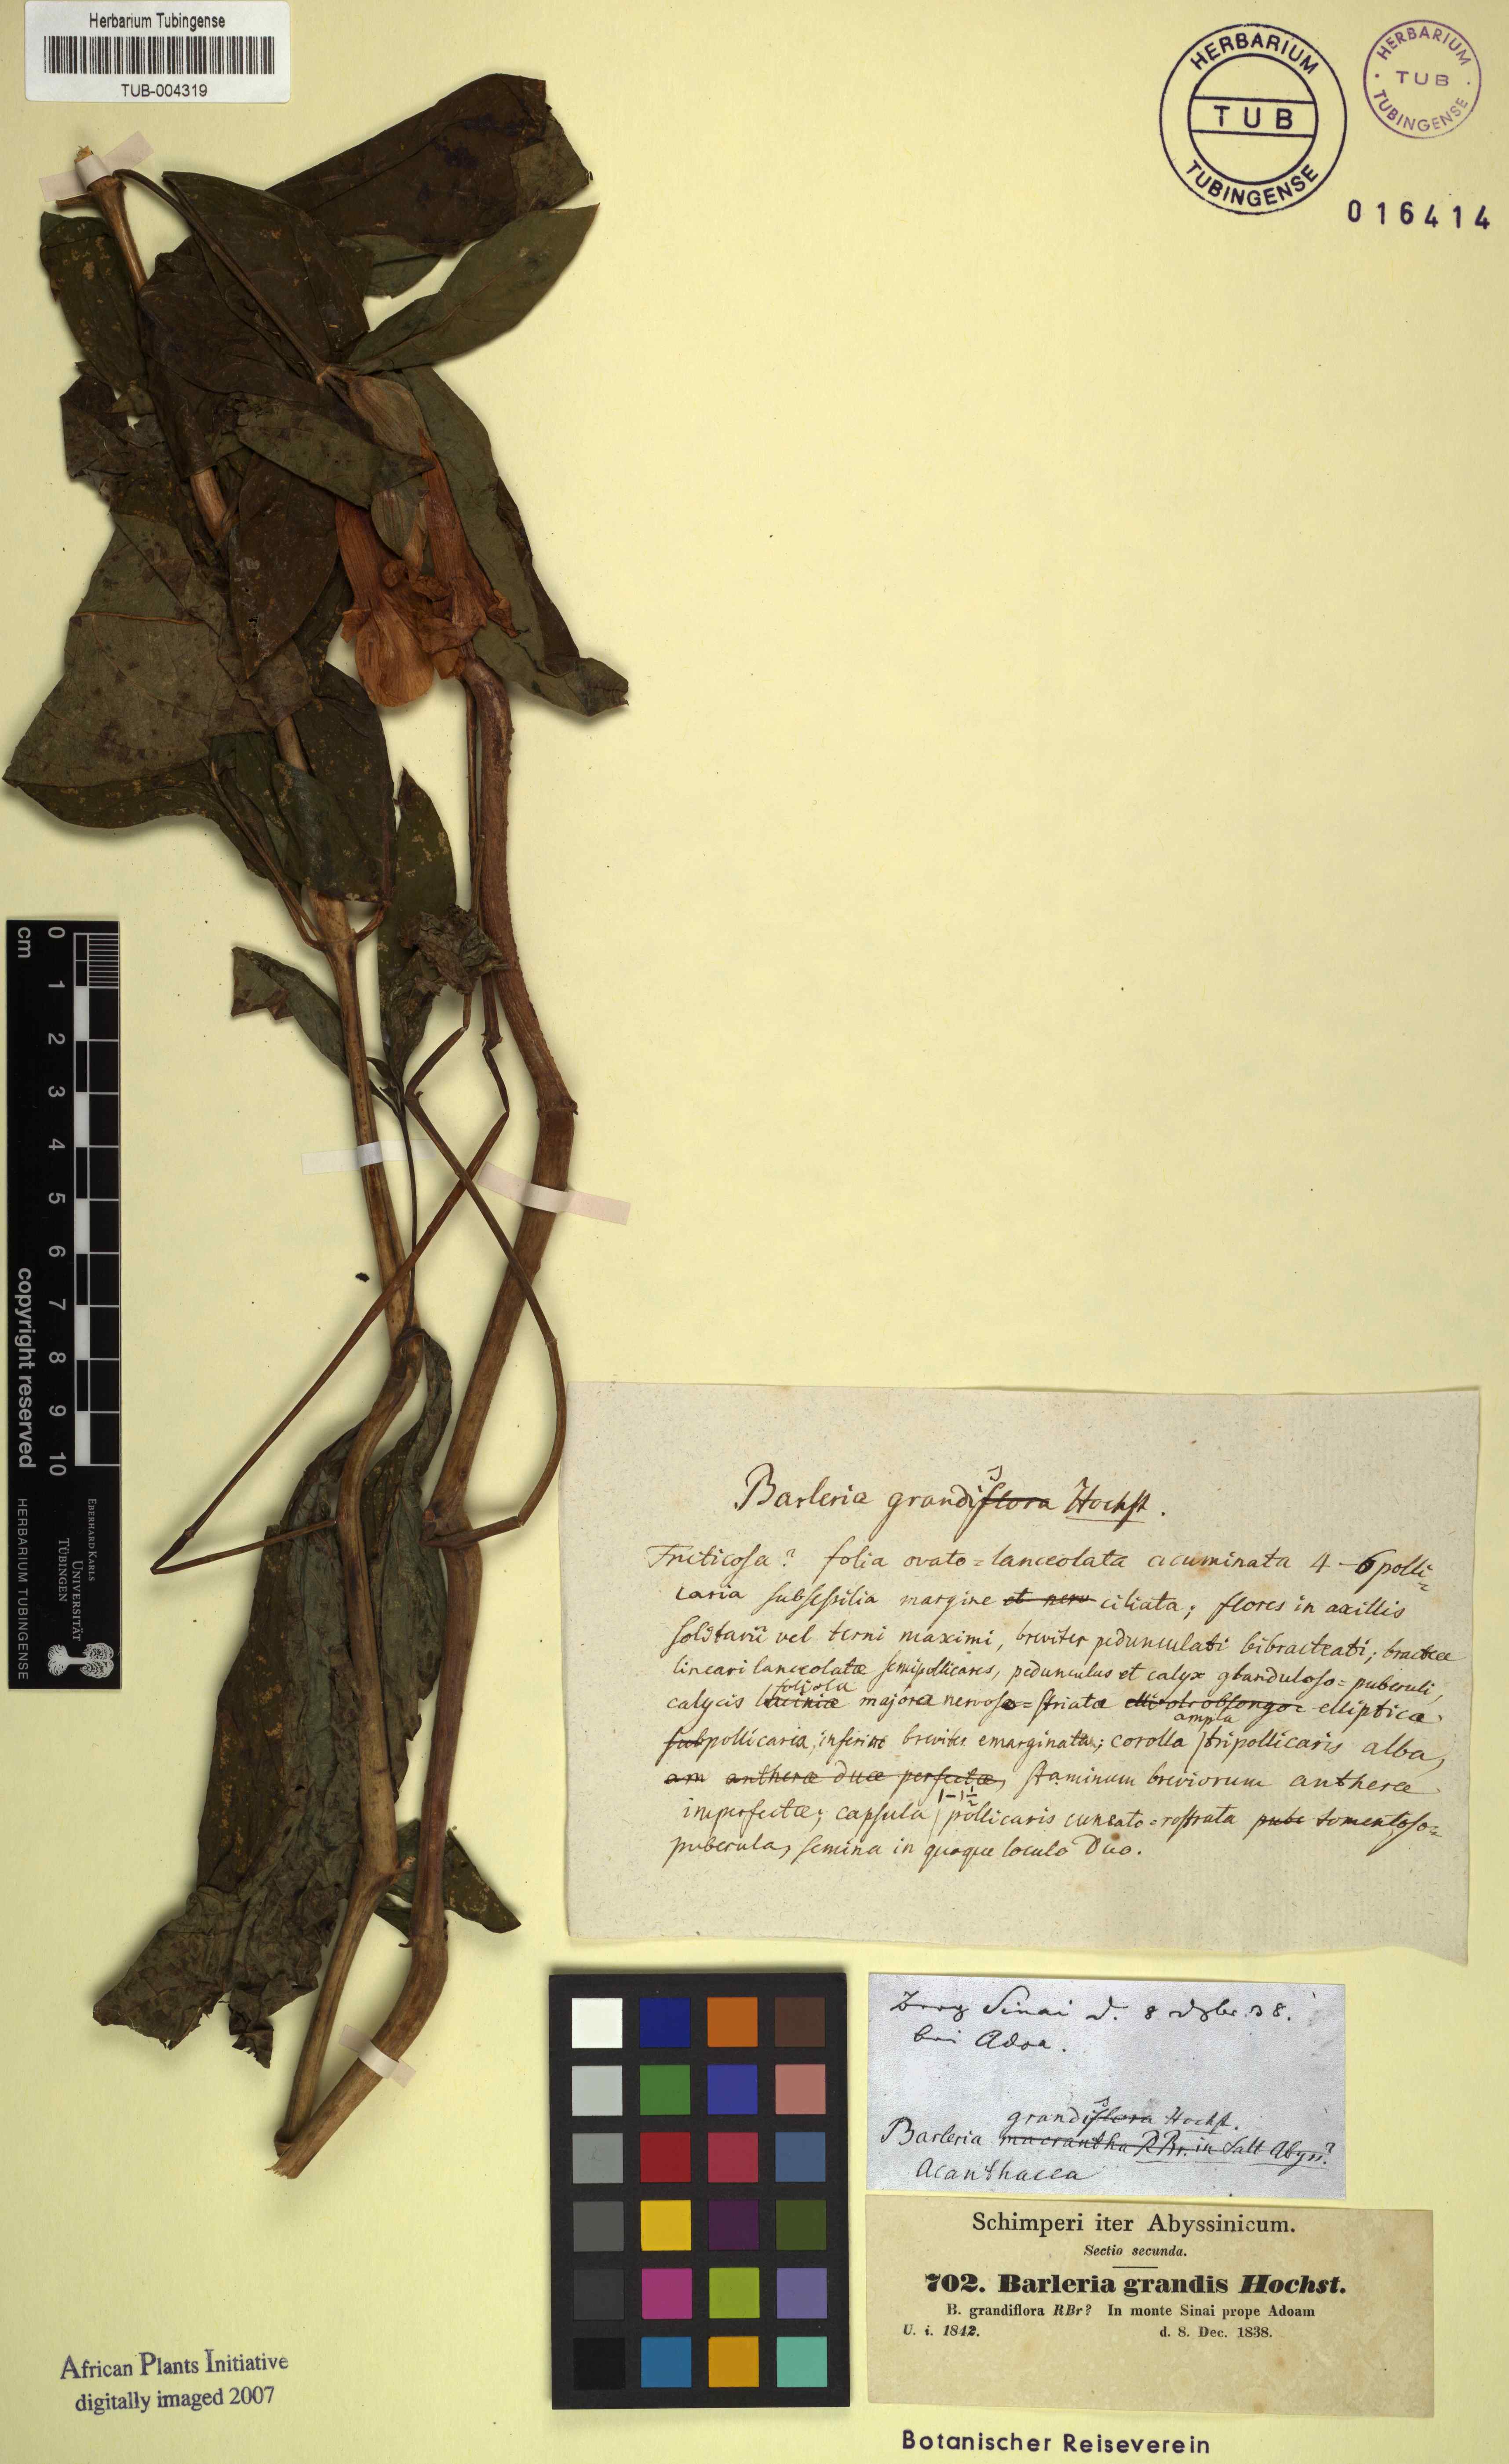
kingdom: Plantae
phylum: Tracheophyta
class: Magnoliopsida
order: Lamiales
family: Acanthaceae
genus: Barleria
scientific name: Barleria grandis
